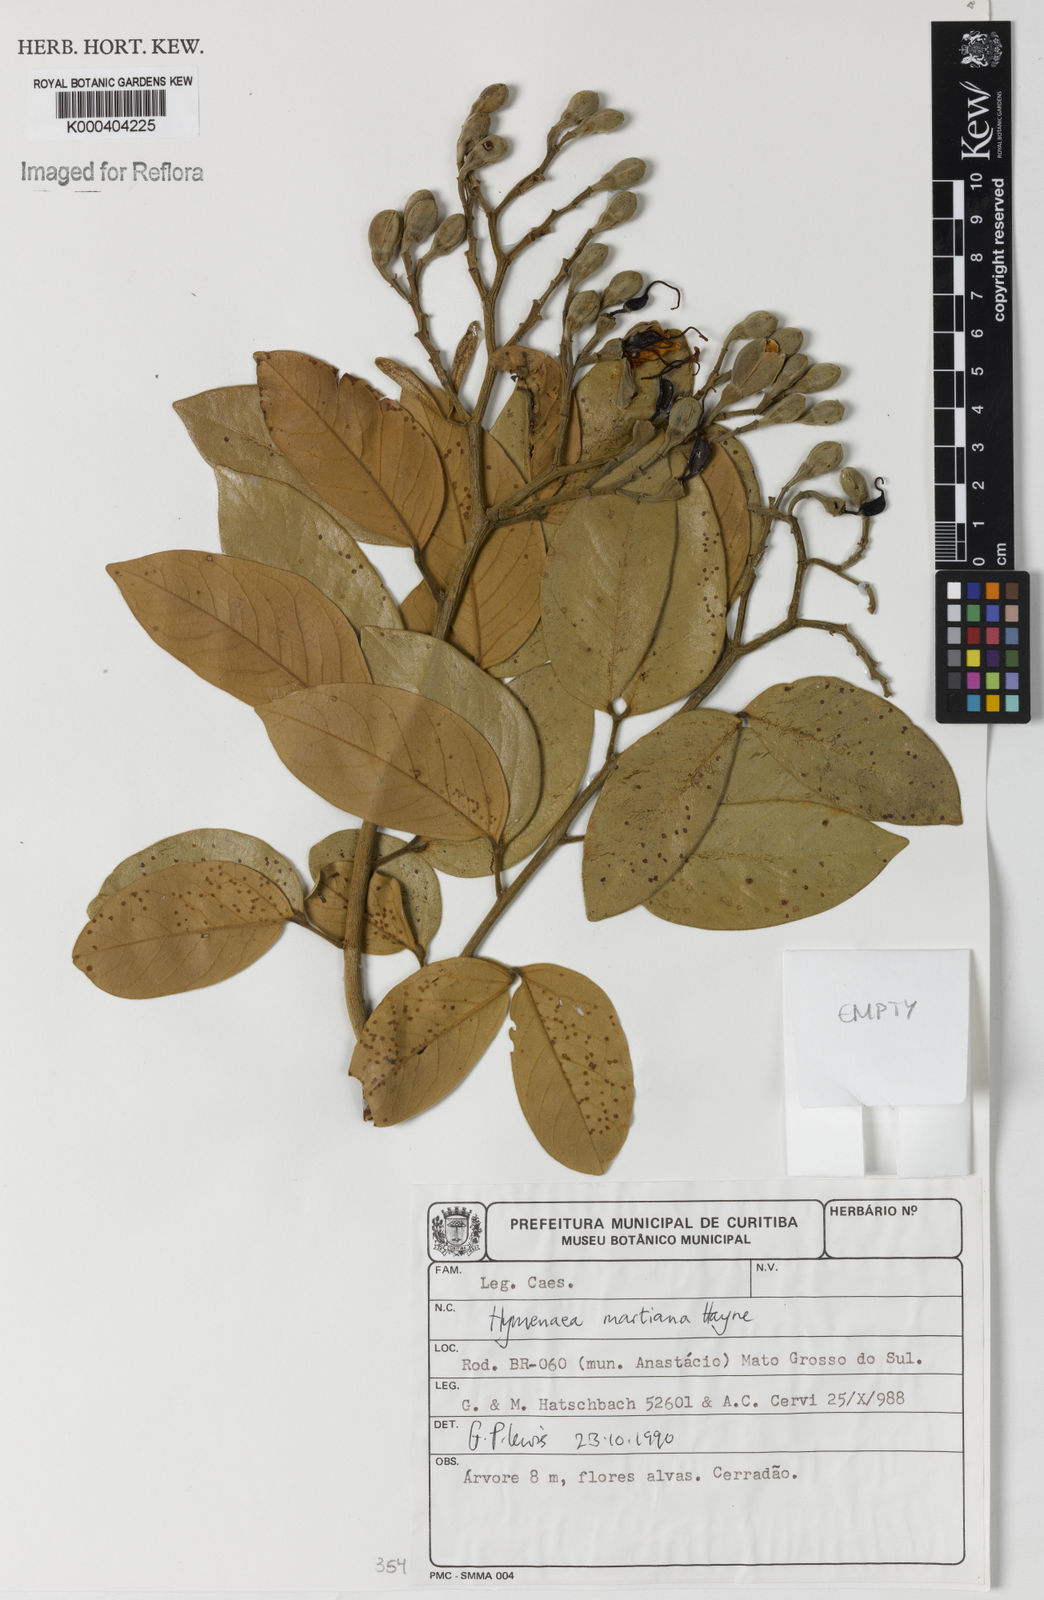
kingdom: Plantae
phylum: Tracheophyta
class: Magnoliopsida
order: Fabales
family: Fabaceae
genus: Hymenaea
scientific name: Hymenaea martiana
